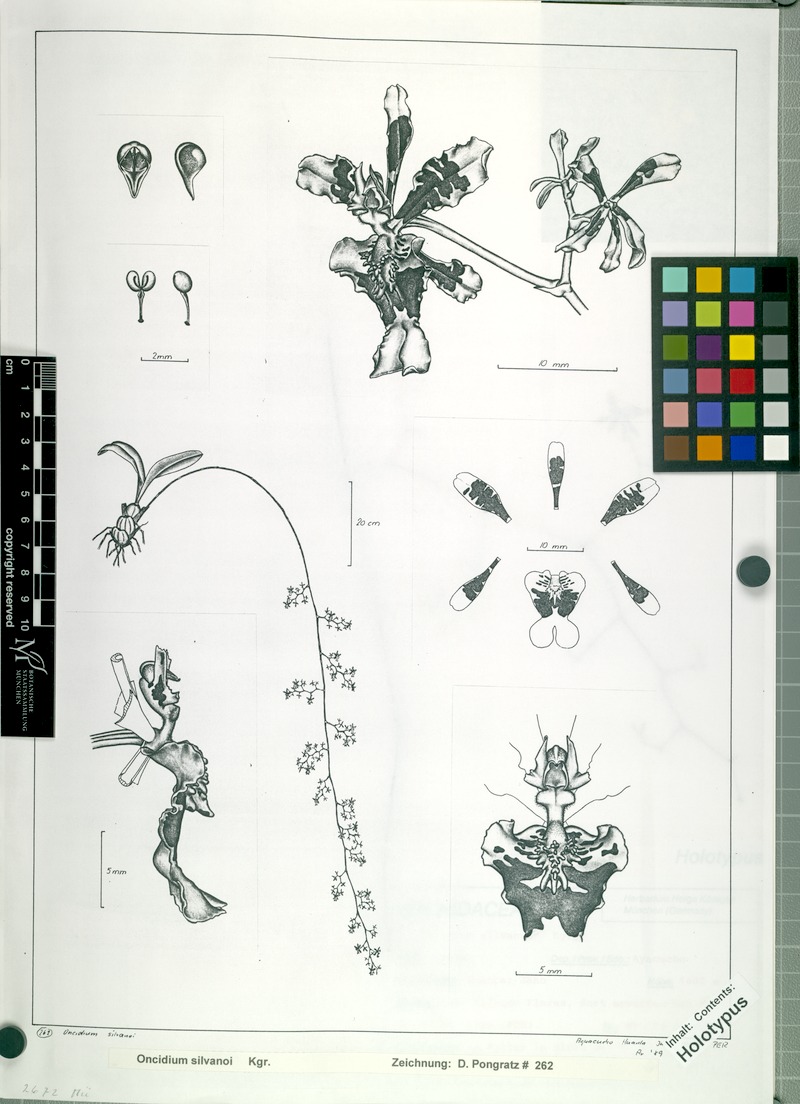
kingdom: Plantae
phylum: Tracheophyta
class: Liliopsida
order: Asparagales
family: Orchidaceae
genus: Oncidium
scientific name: Oncidium silvanoi
